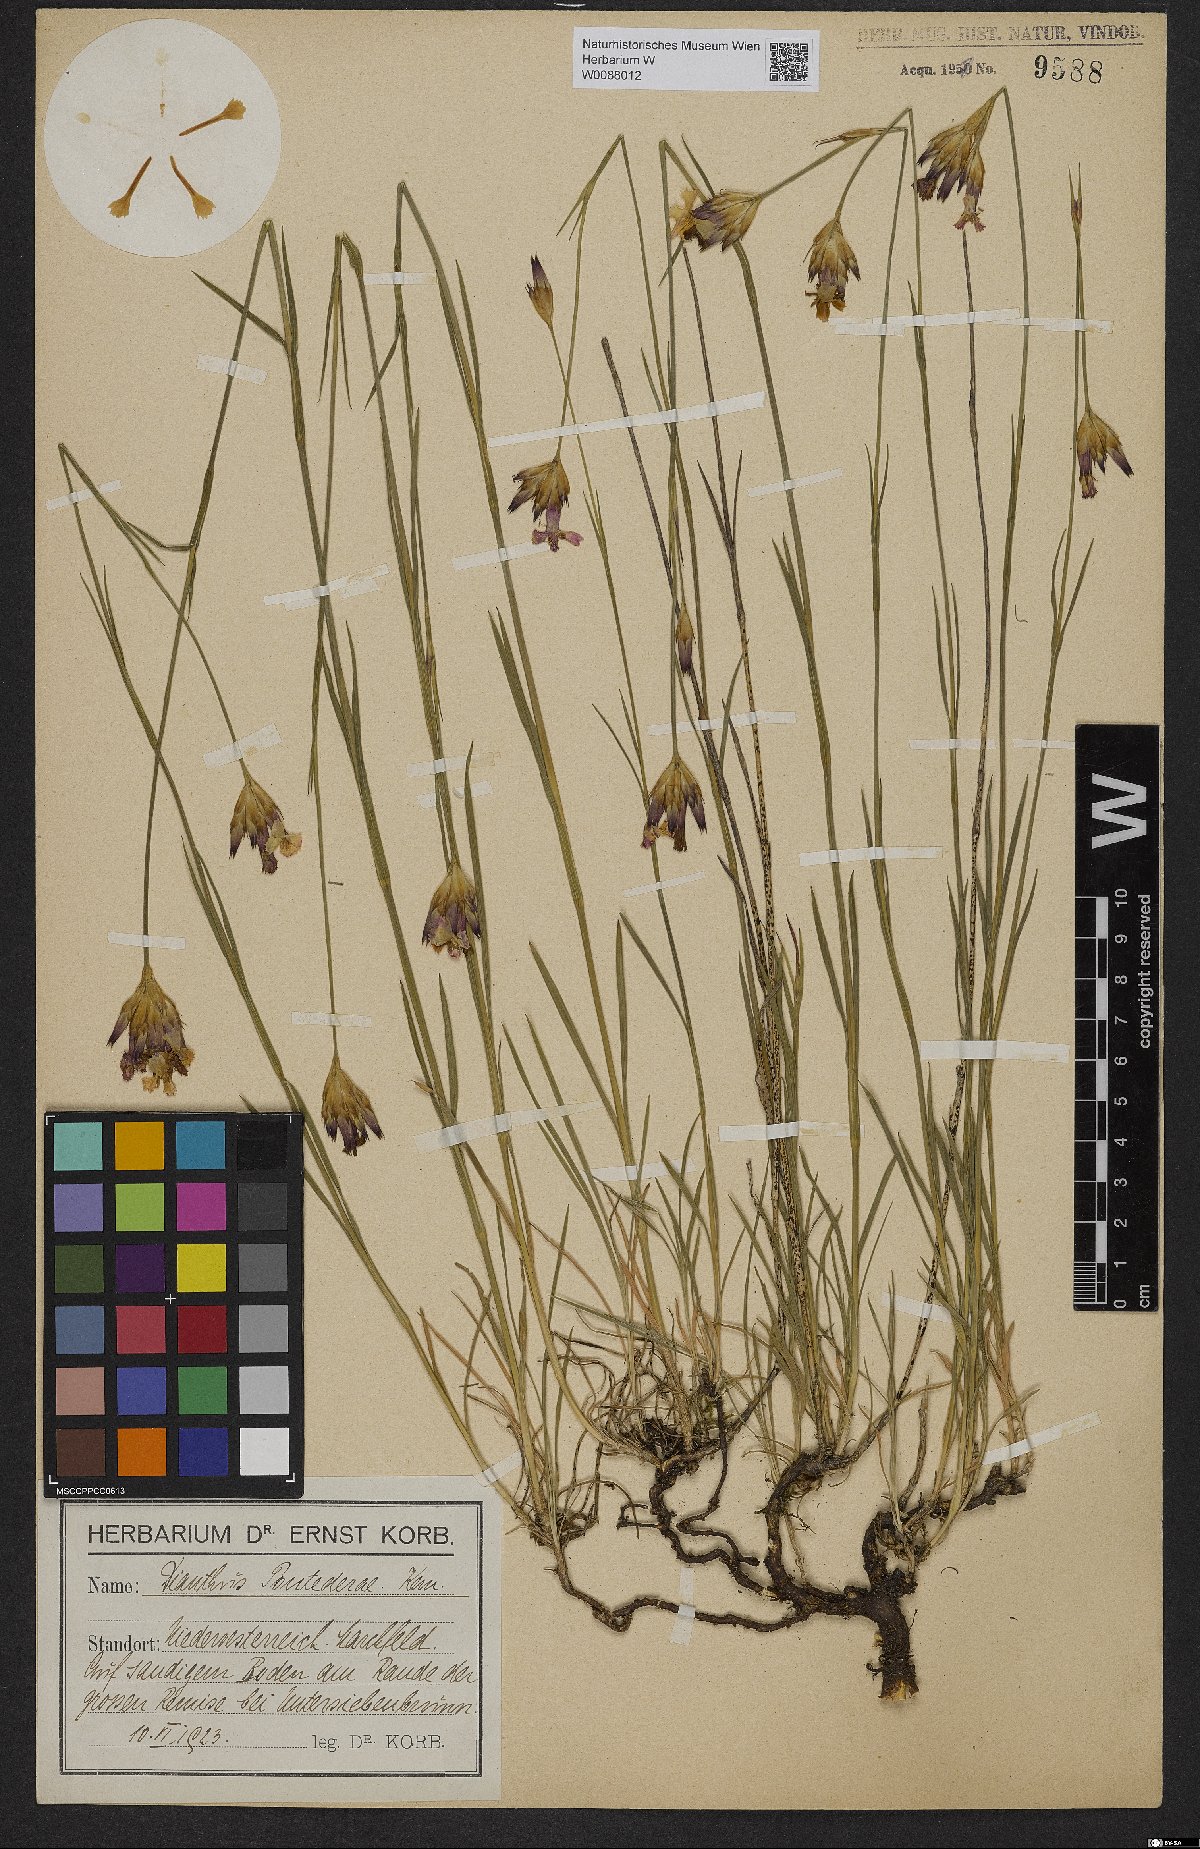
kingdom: Plantae
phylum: Tracheophyta
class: Magnoliopsida
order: Caryophyllales
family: Caryophyllaceae
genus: Dianthus
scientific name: Dianthus pontederae
